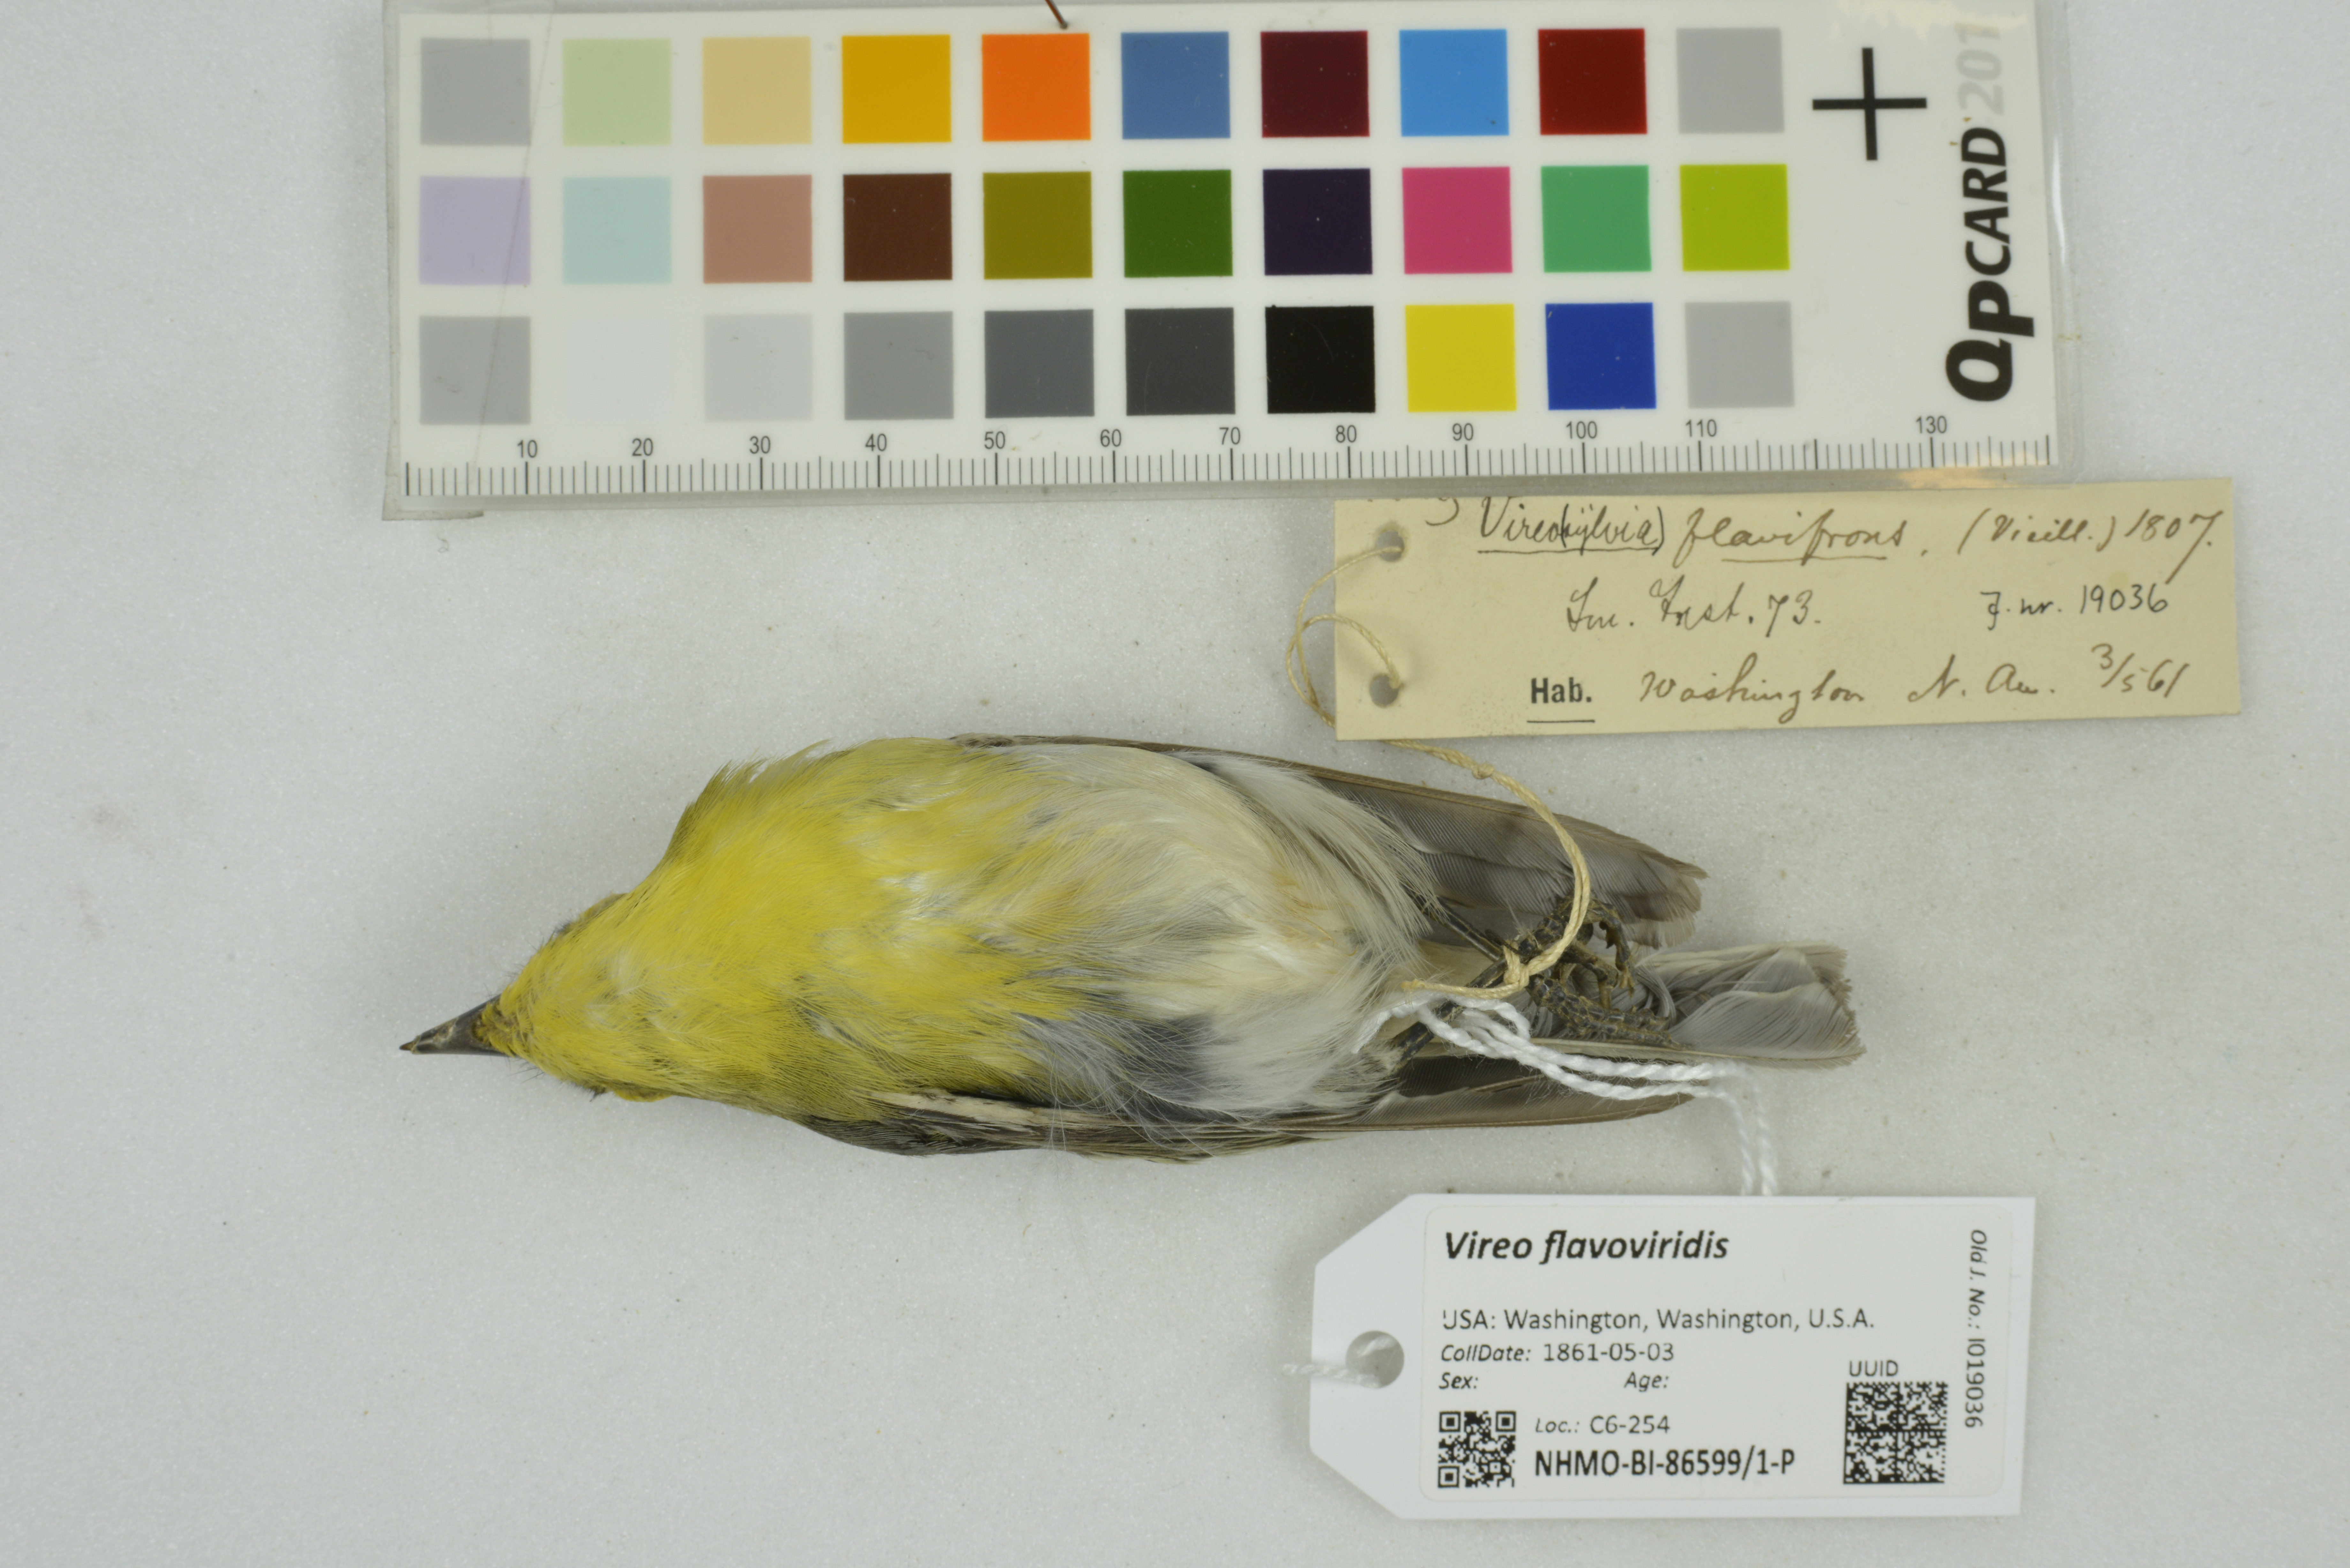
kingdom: Animalia
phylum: Chordata
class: Aves
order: Passeriformes
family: Vireonidae
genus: Vireo
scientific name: Vireo flavoviridis
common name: Yellow-green vireo
